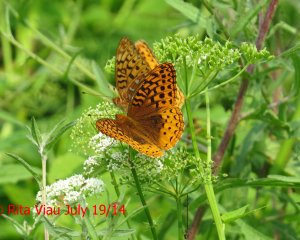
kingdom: Animalia
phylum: Arthropoda
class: Insecta
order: Lepidoptera
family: Nymphalidae
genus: Speyeria
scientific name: Speyeria cybele
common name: Great Spangled Fritillary
